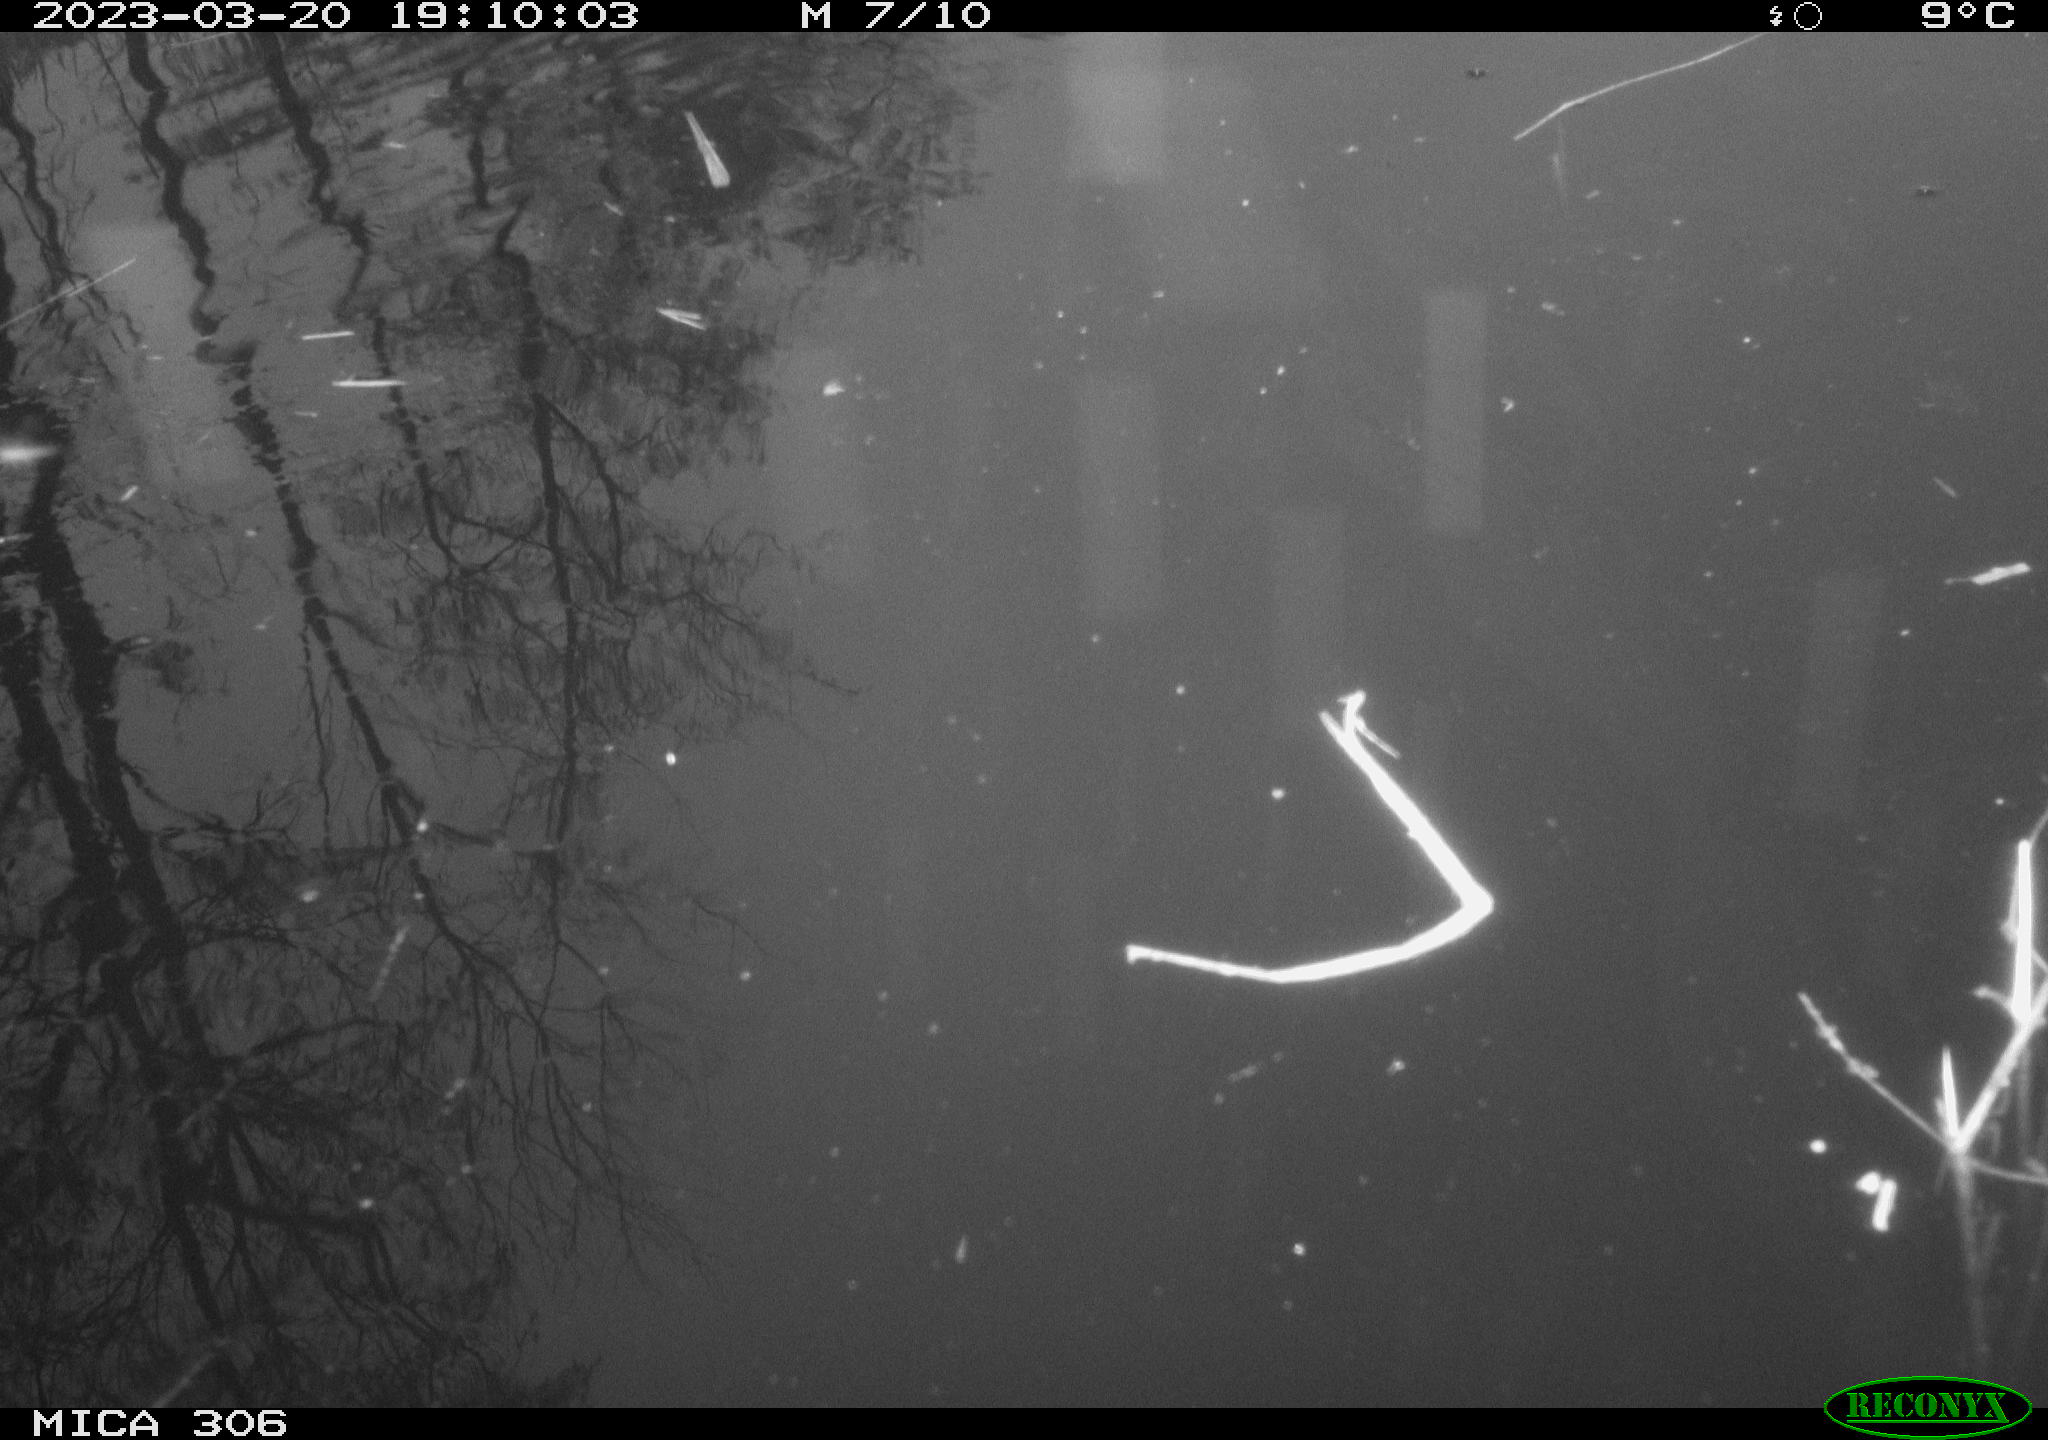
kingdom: Animalia
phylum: Chordata
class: Aves
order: Gruiformes
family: Rallidae
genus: Gallinula
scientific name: Gallinula chloropus
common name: Common moorhen
